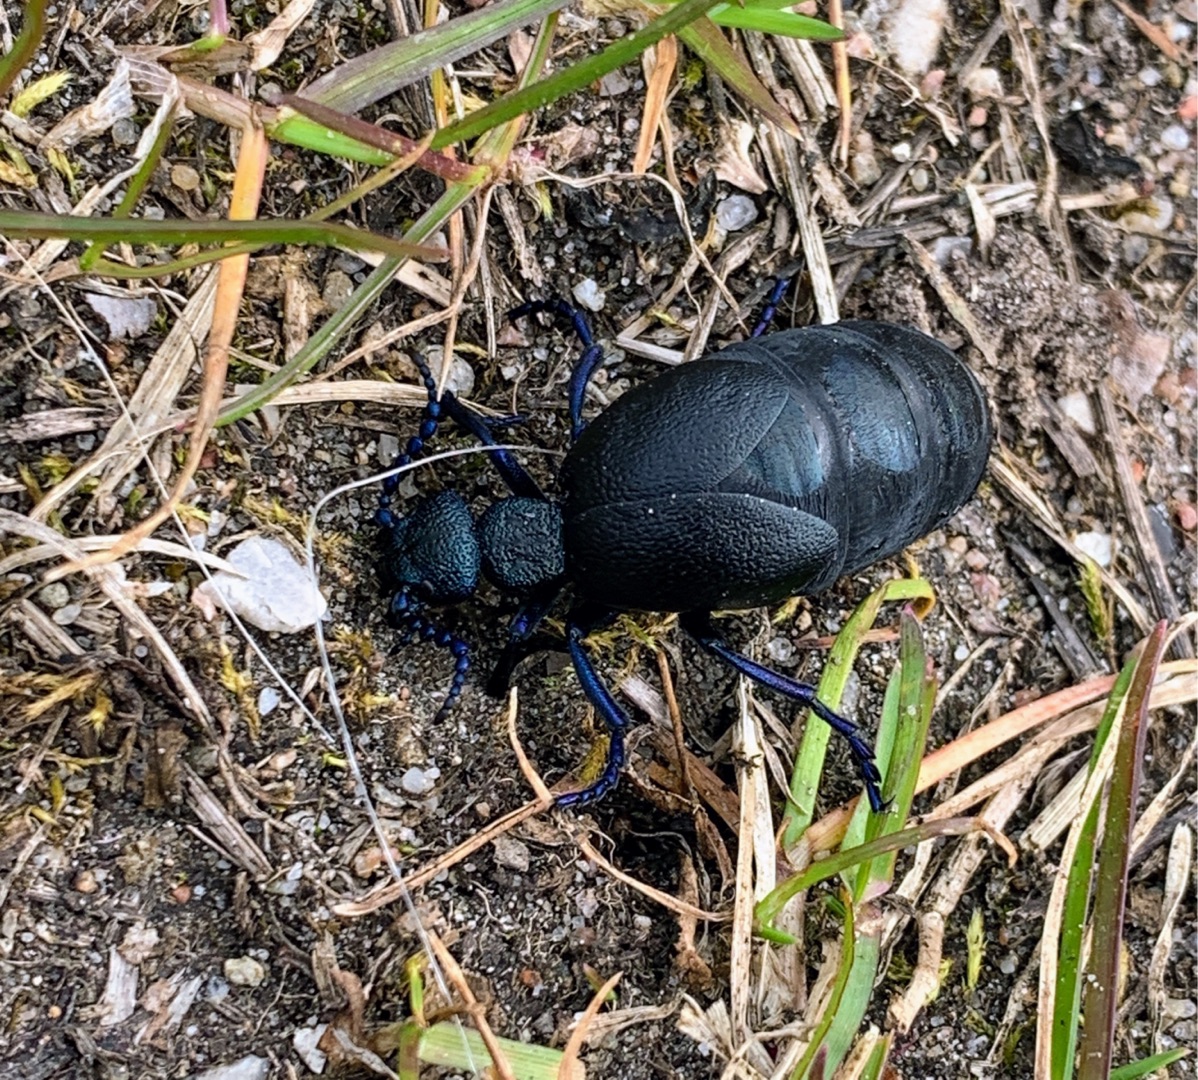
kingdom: Animalia
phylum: Arthropoda
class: Insecta
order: Coleoptera
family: Meloidae
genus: Meloe
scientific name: Meloe proscarabaeus
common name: Sort oliebille
